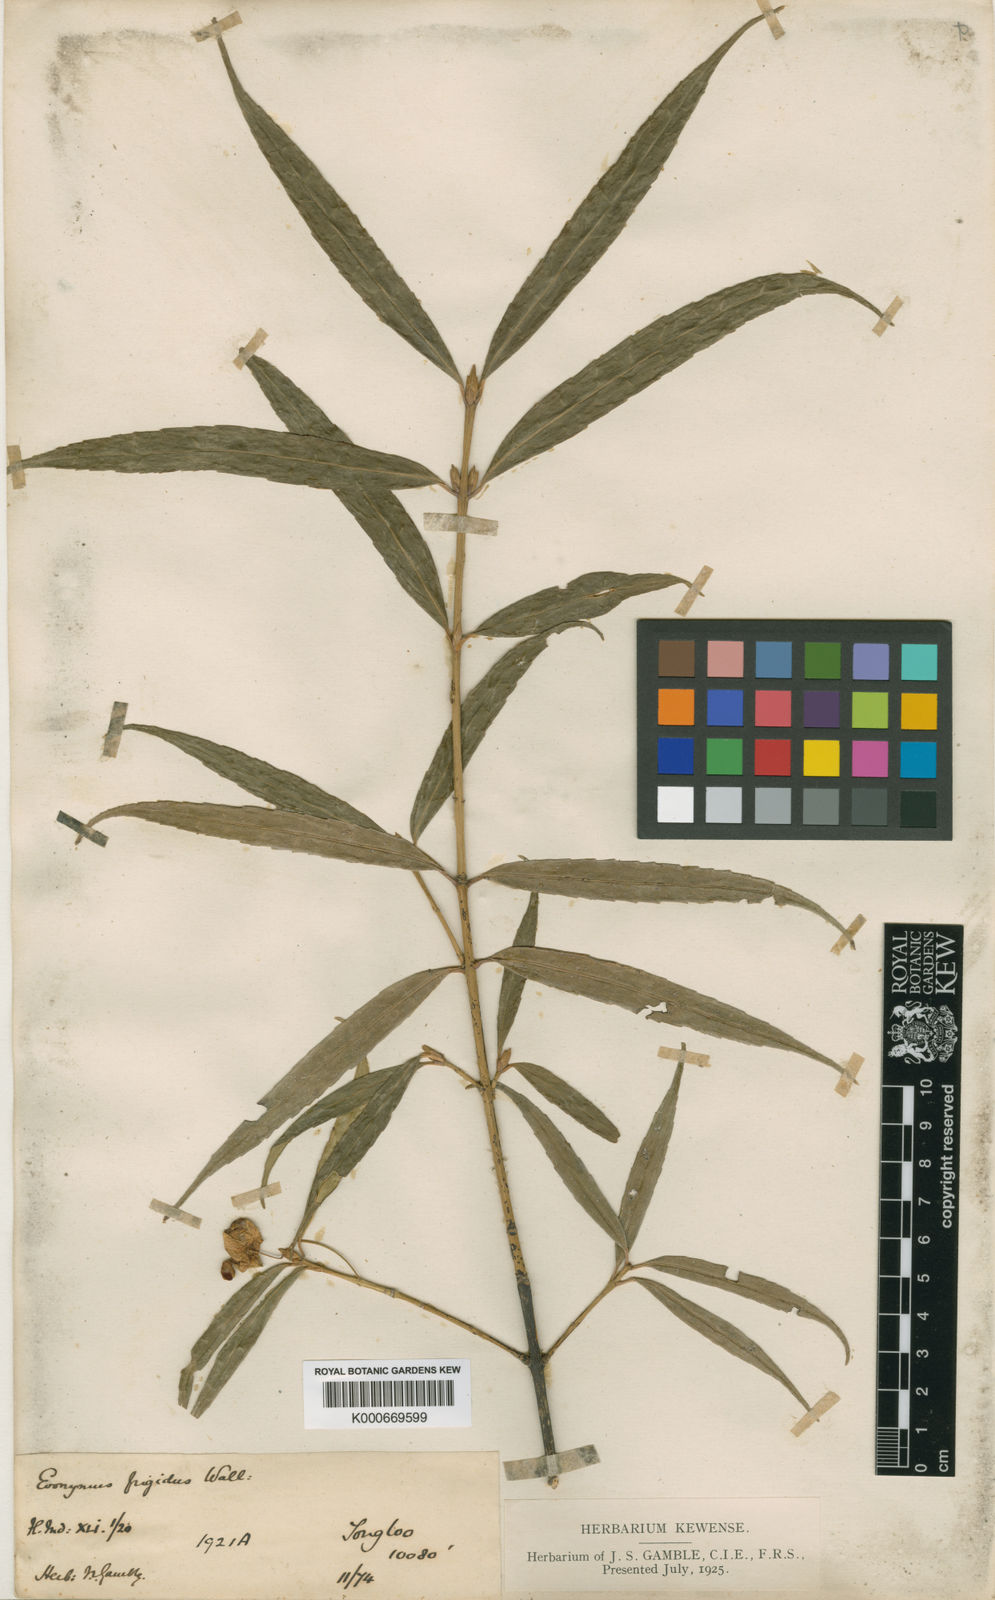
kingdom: Plantae
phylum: Tracheophyta
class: Magnoliopsida
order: Celastrales
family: Celastraceae
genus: Euonymus
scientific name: Euonymus frigidus
